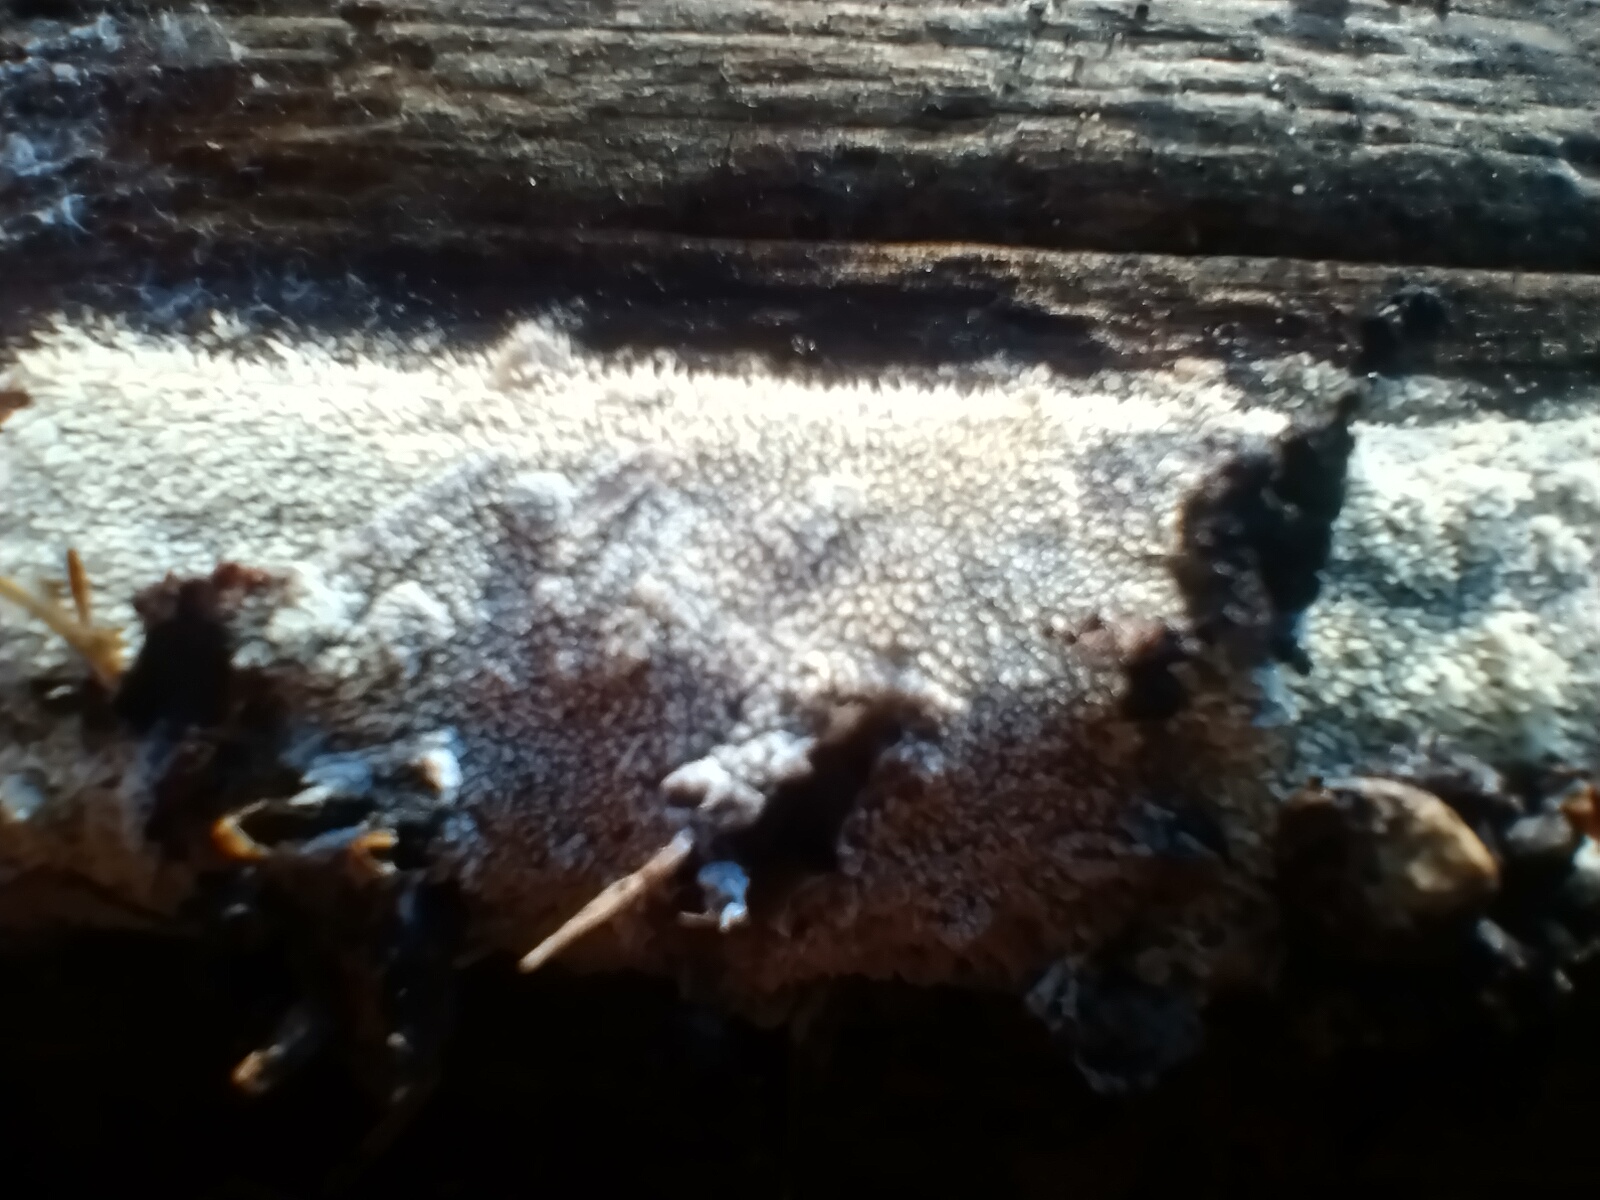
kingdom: Fungi
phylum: Basidiomycota
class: Agaricomycetes
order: Hymenochaetales
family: Schizoporaceae
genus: Xylodon
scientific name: Xylodon
